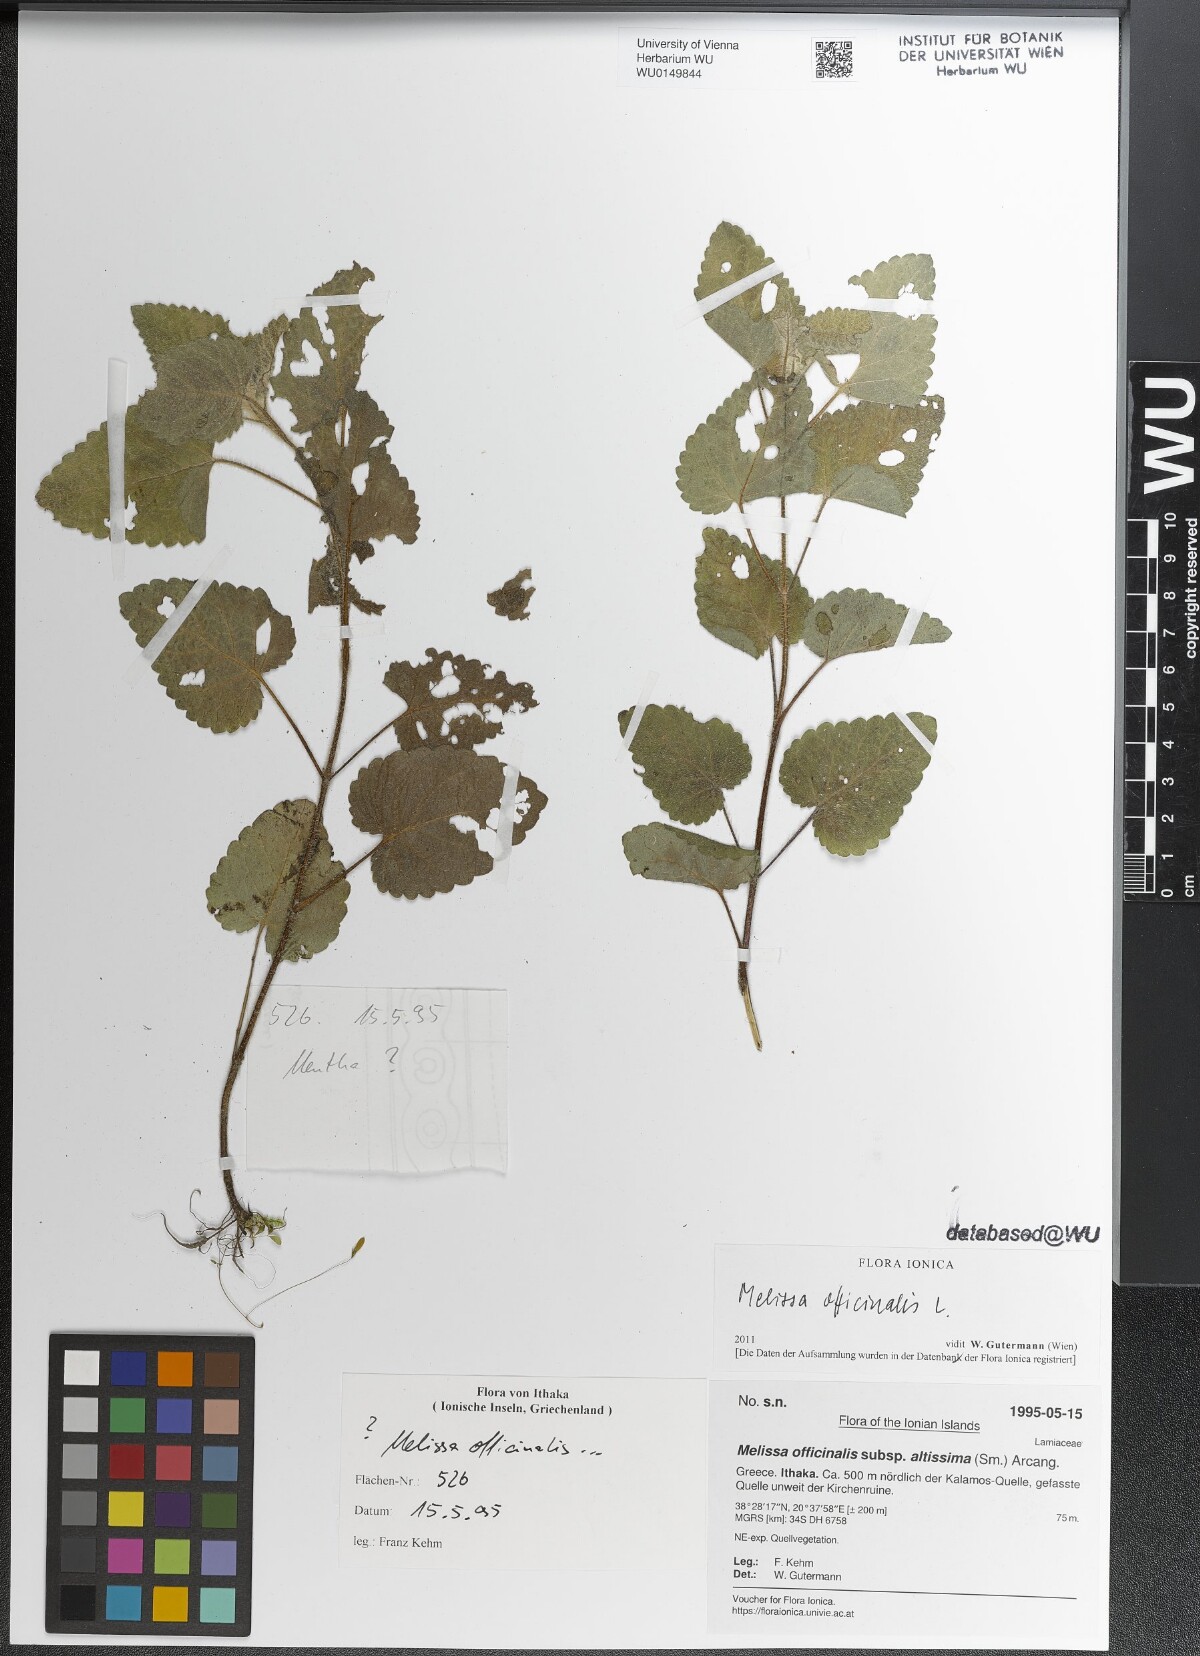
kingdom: Plantae
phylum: Tracheophyta
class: Magnoliopsida
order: Lamiales
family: Lamiaceae
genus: Melissa
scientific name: Melissa officinalis
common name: Balm
